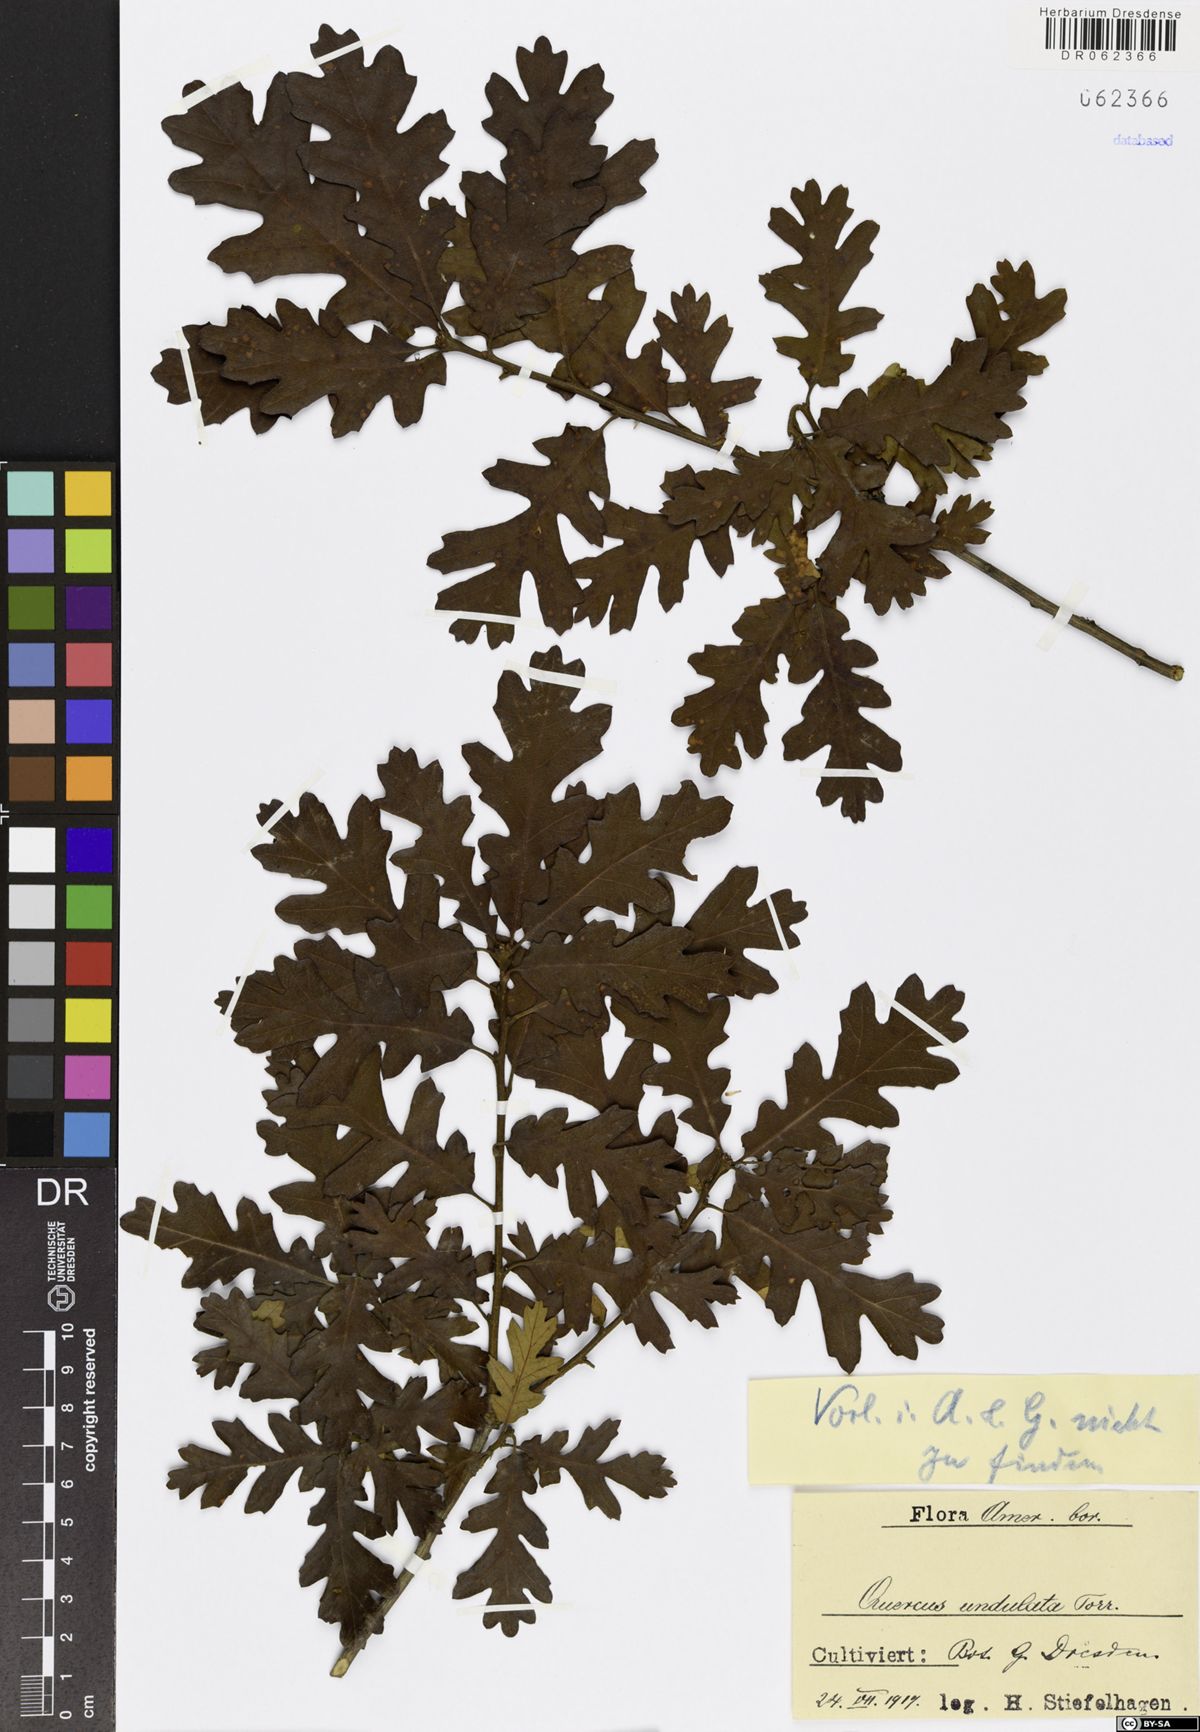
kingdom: Plantae
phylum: Tracheophyta
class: Magnoliopsida
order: Fagales
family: Fagaceae
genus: Quercus
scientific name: Quercus undulata
